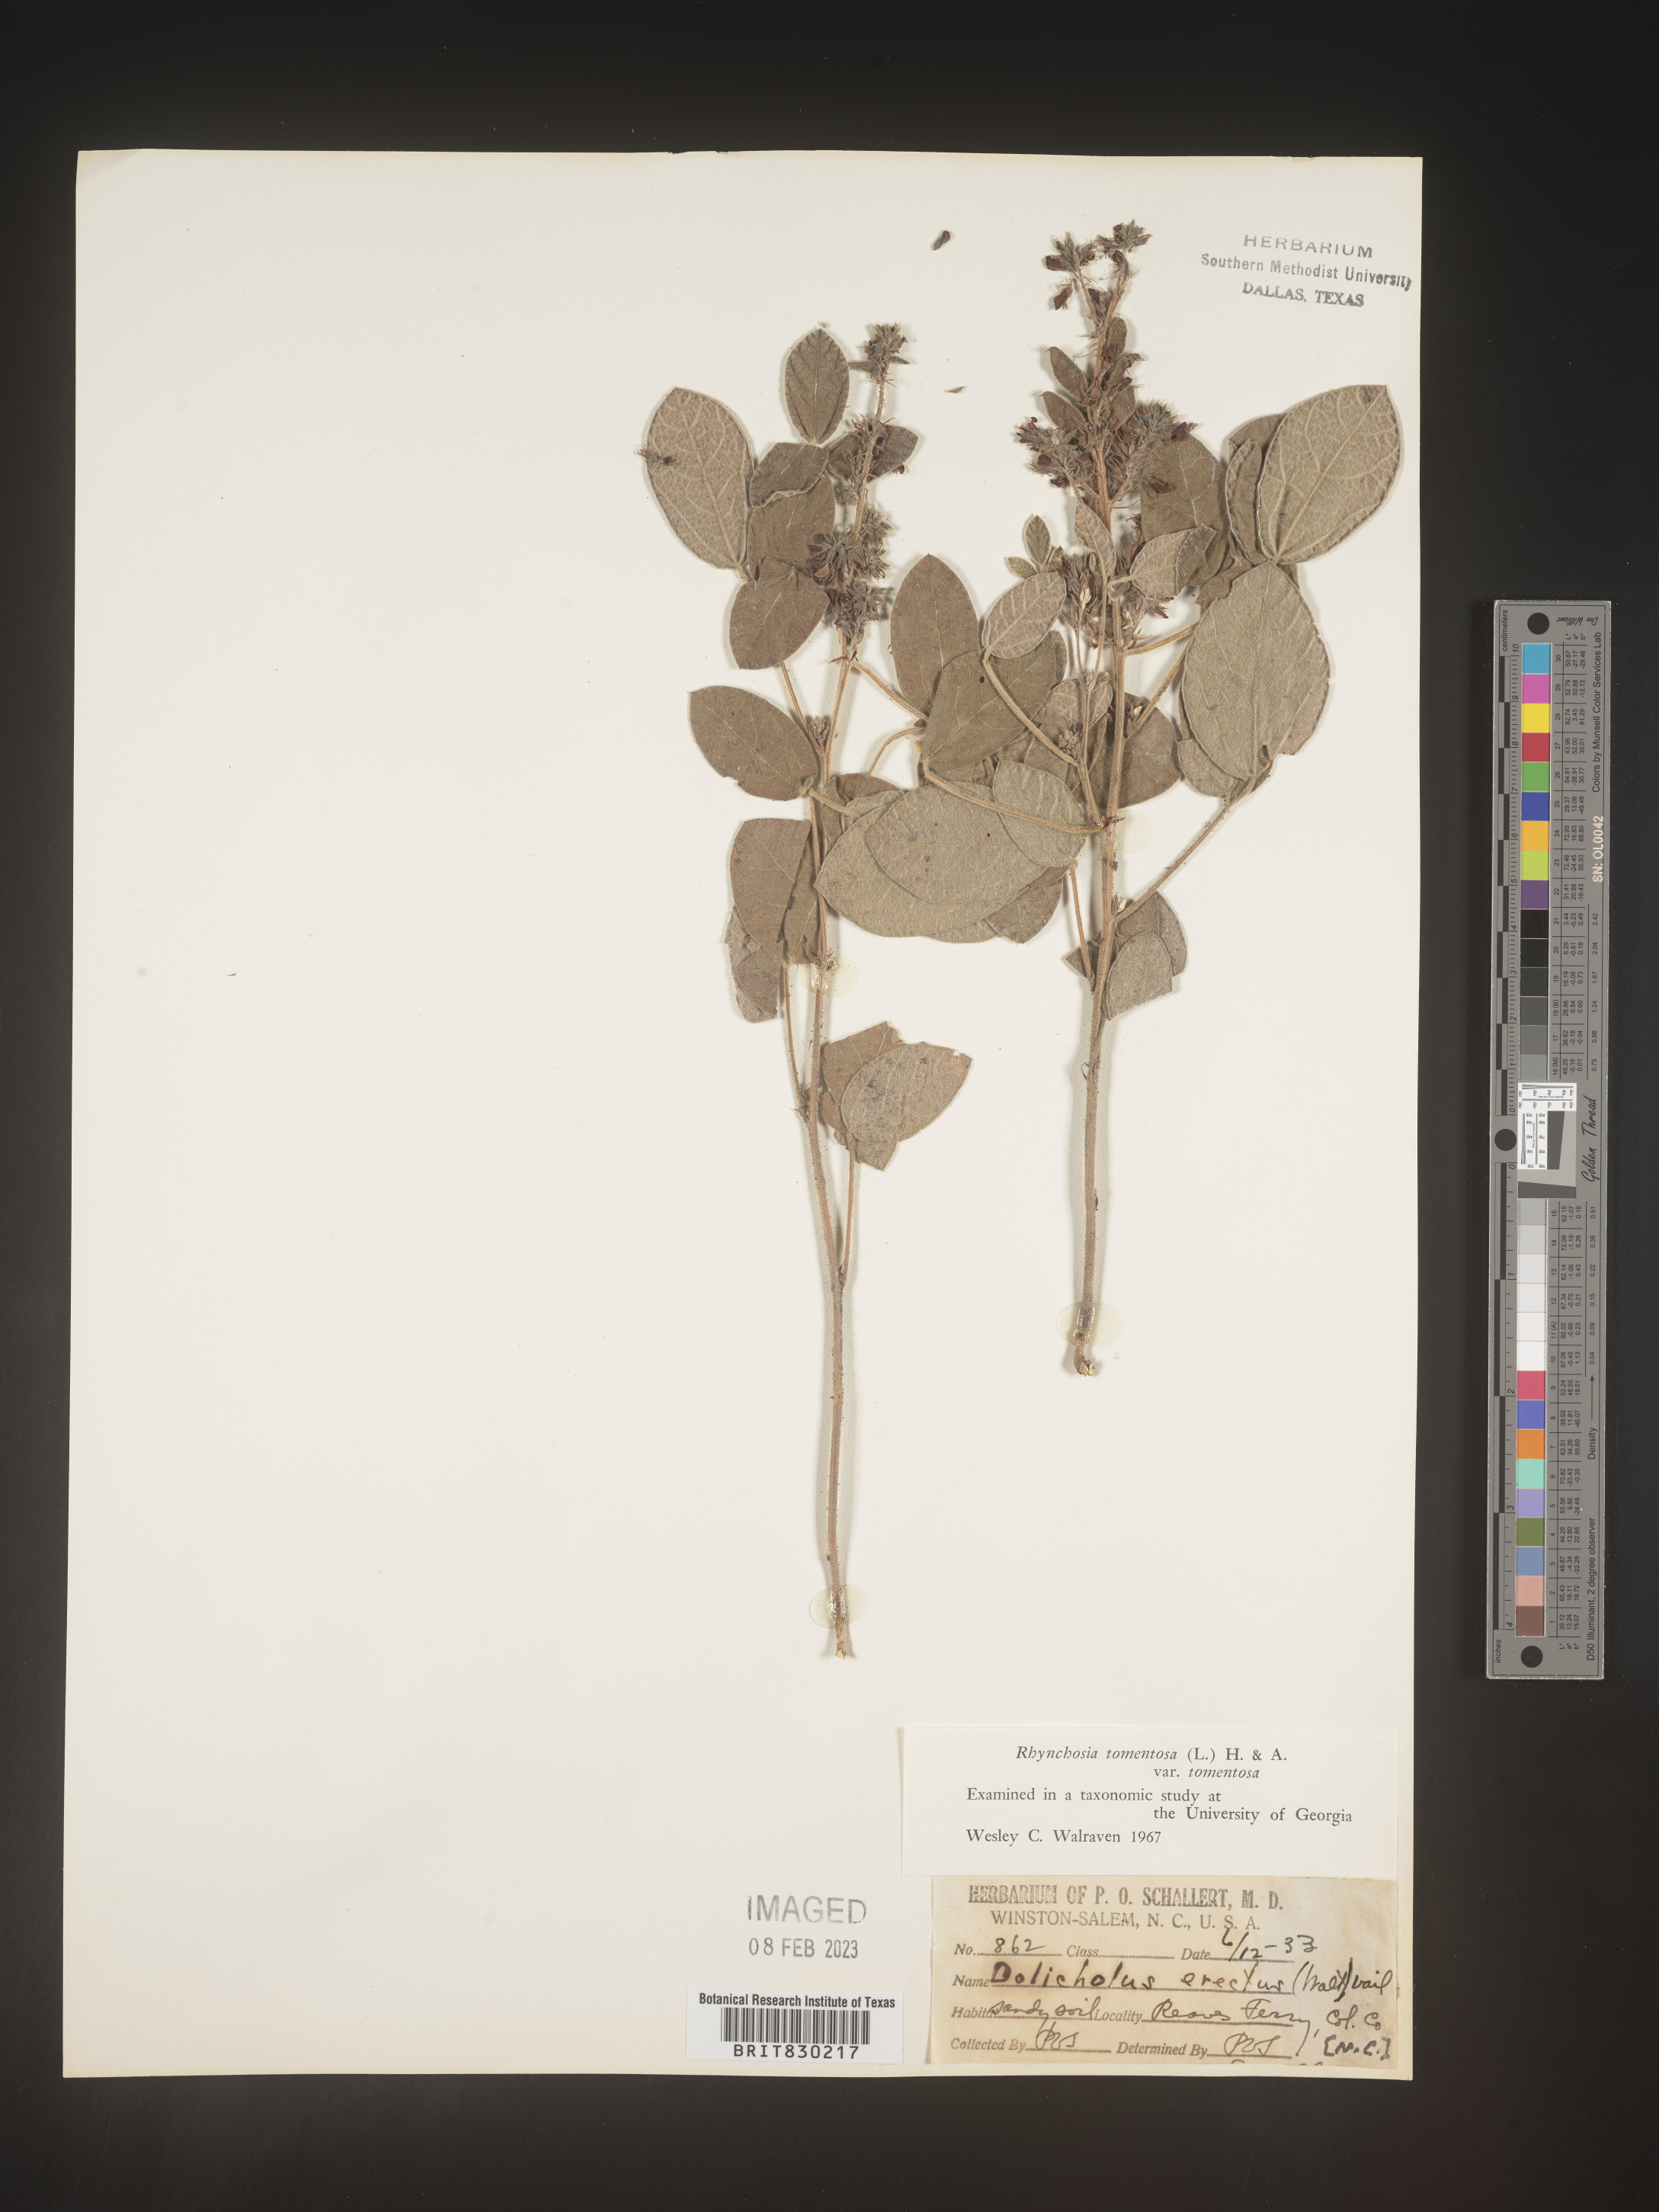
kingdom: Plantae
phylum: Tracheophyta
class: Magnoliopsida
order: Fabales
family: Fabaceae
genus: Rhynchosia
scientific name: Rhynchosia rothii
